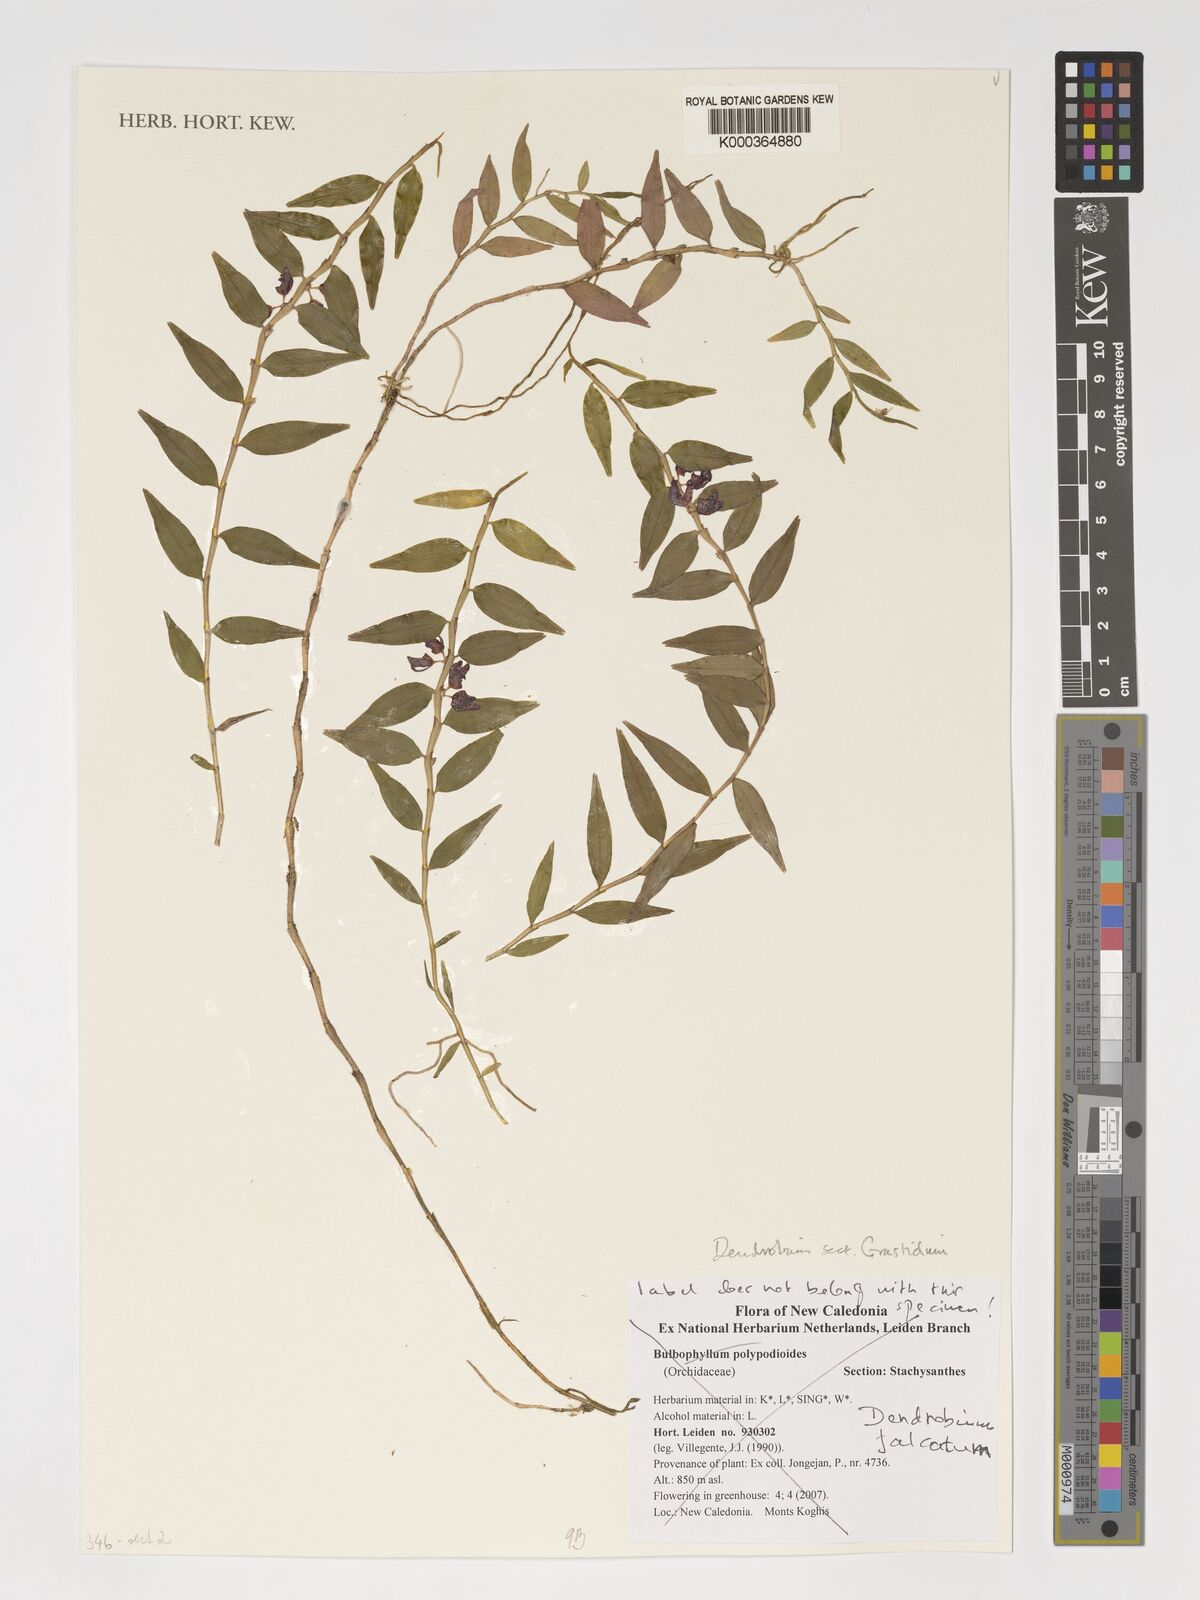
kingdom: Plantae
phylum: Tracheophyta
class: Liliopsida
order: Asparagales
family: Orchidaceae
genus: Bulbophyllum
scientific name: Bulbophyllum apodum
